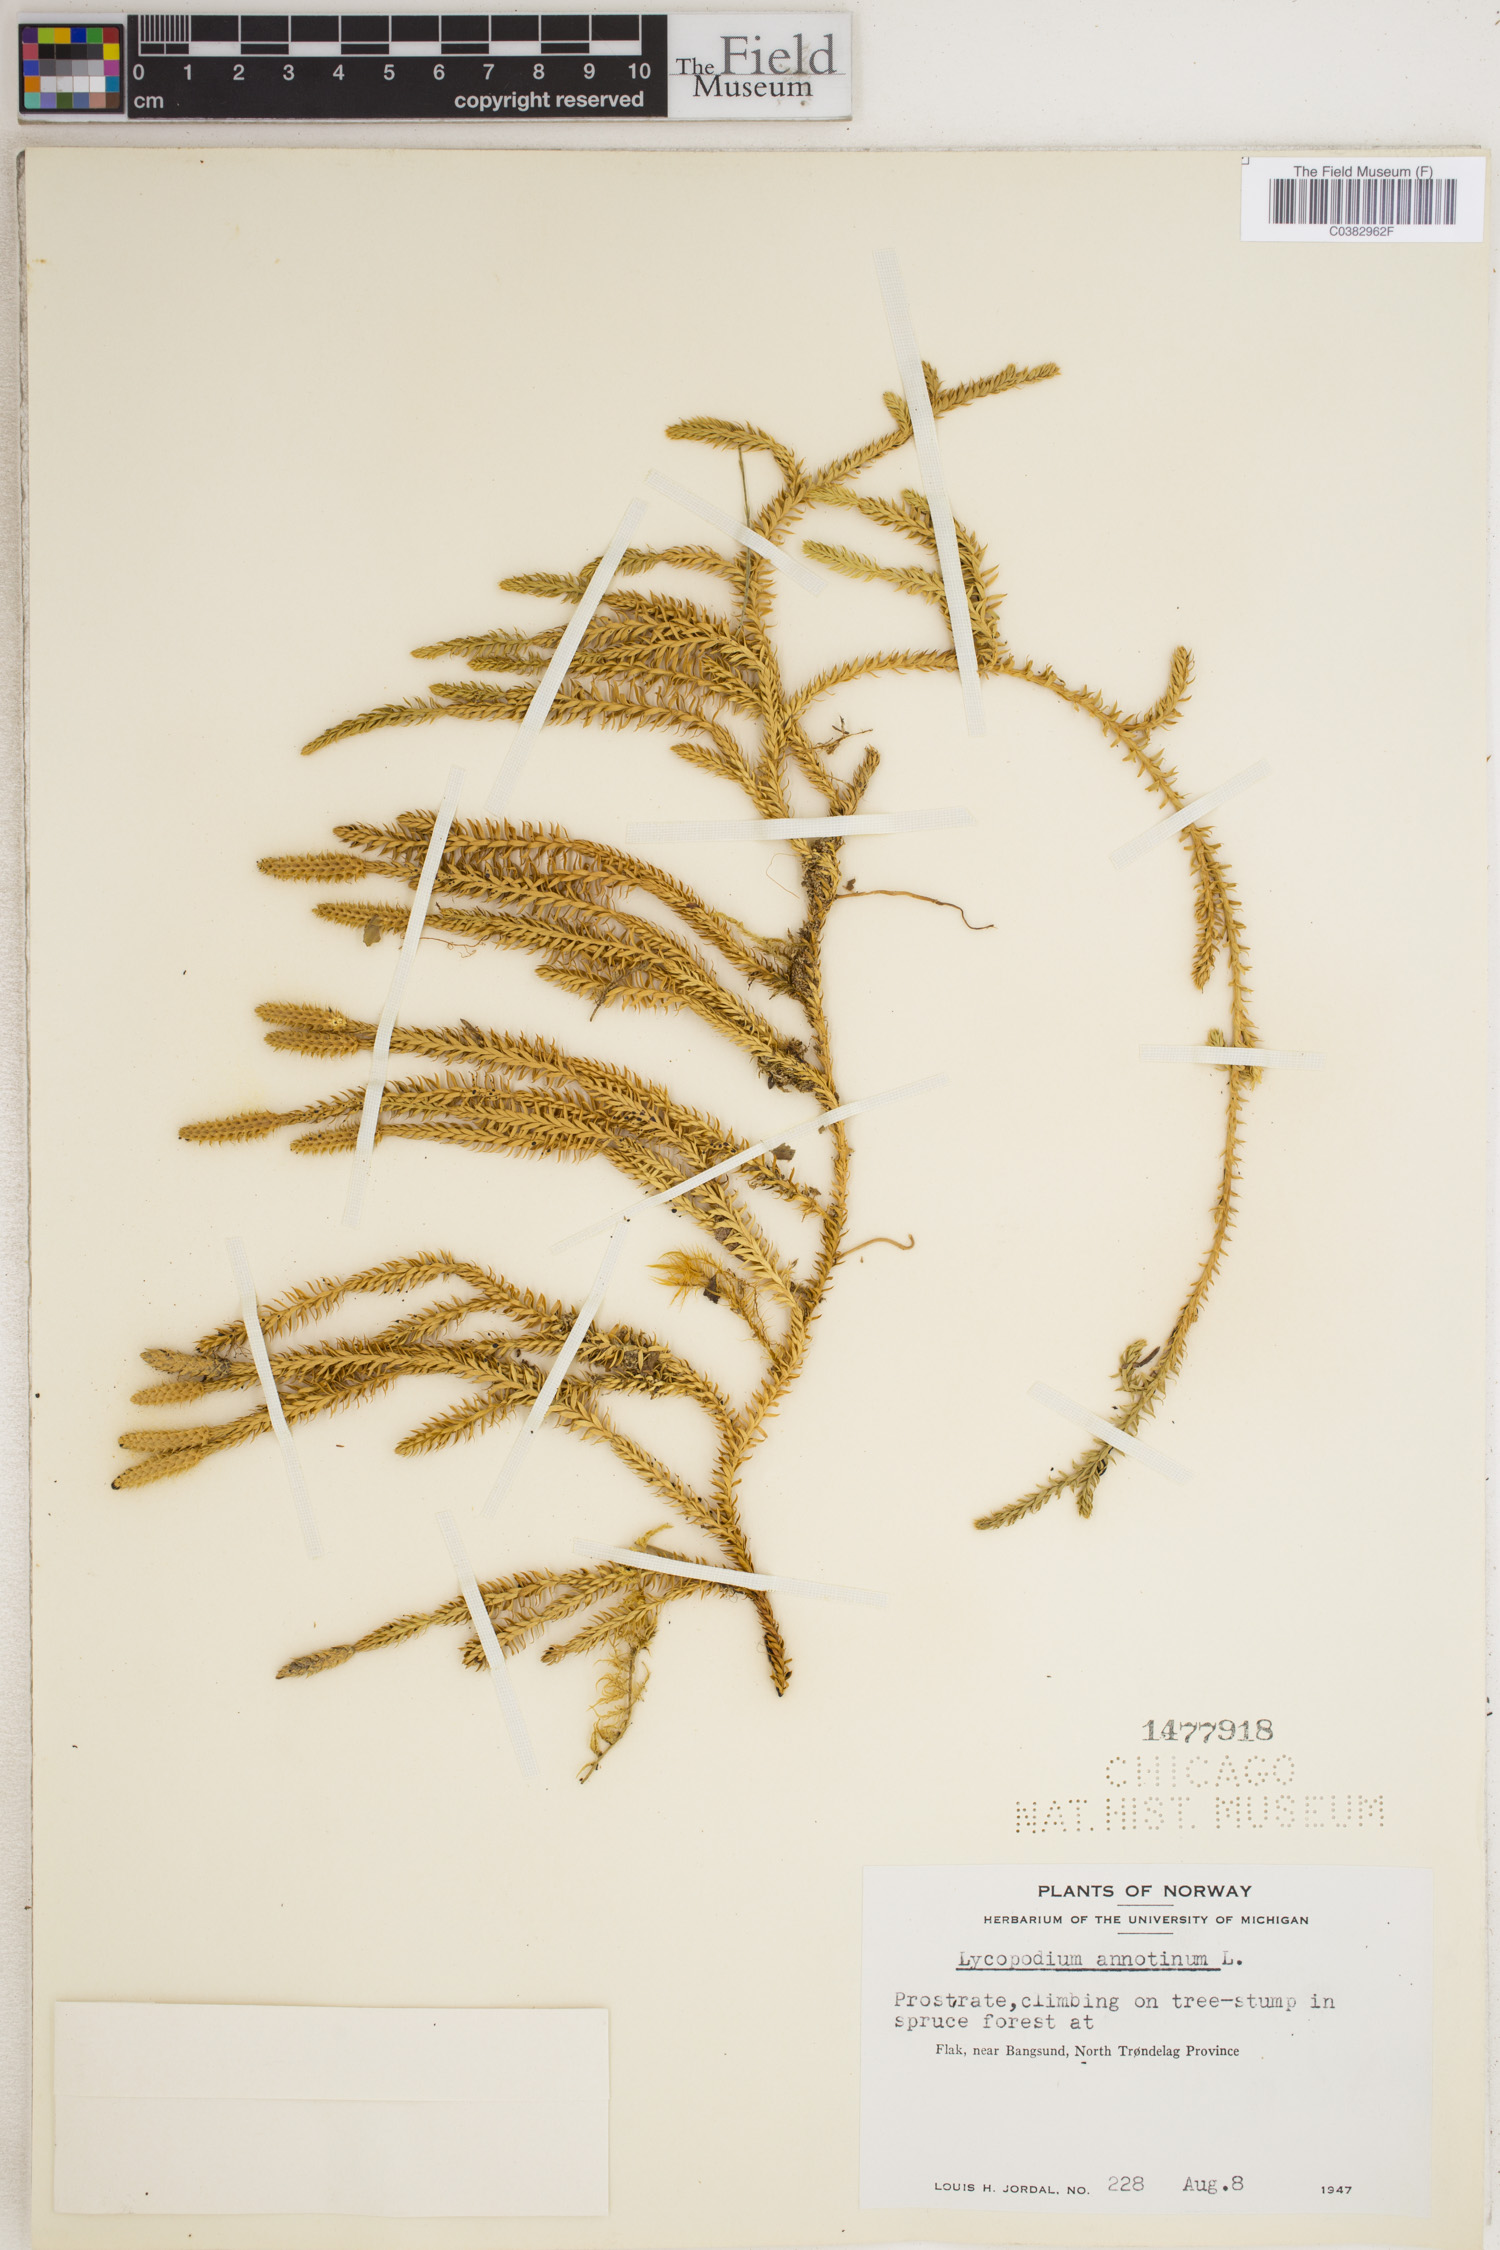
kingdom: Plantae
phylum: Tracheophyta
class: Lycopodiopsida
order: Lycopodiales
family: Lycopodiaceae
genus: Lycopodium
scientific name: Lycopodium clavatum
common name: Stag's-horn clubmoss
